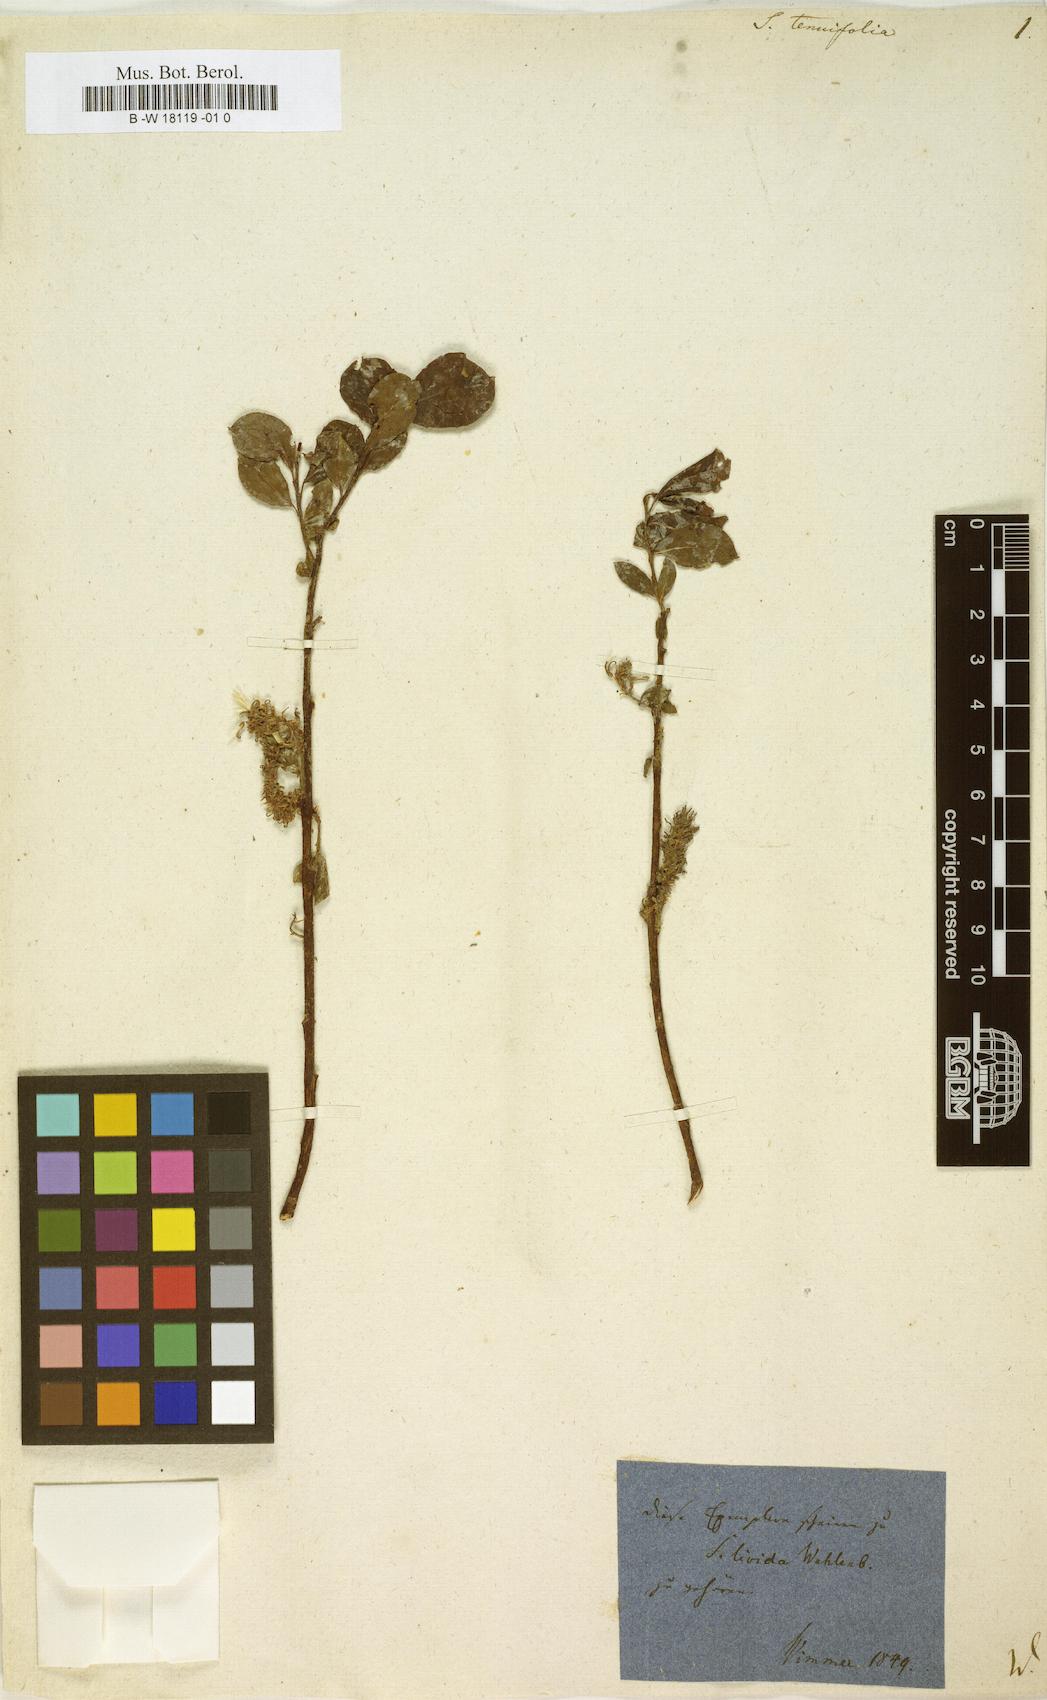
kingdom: Plantae
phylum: Tracheophyta
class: Magnoliopsida
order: Malpighiales
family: Salicaceae
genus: Salix
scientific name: Salix
